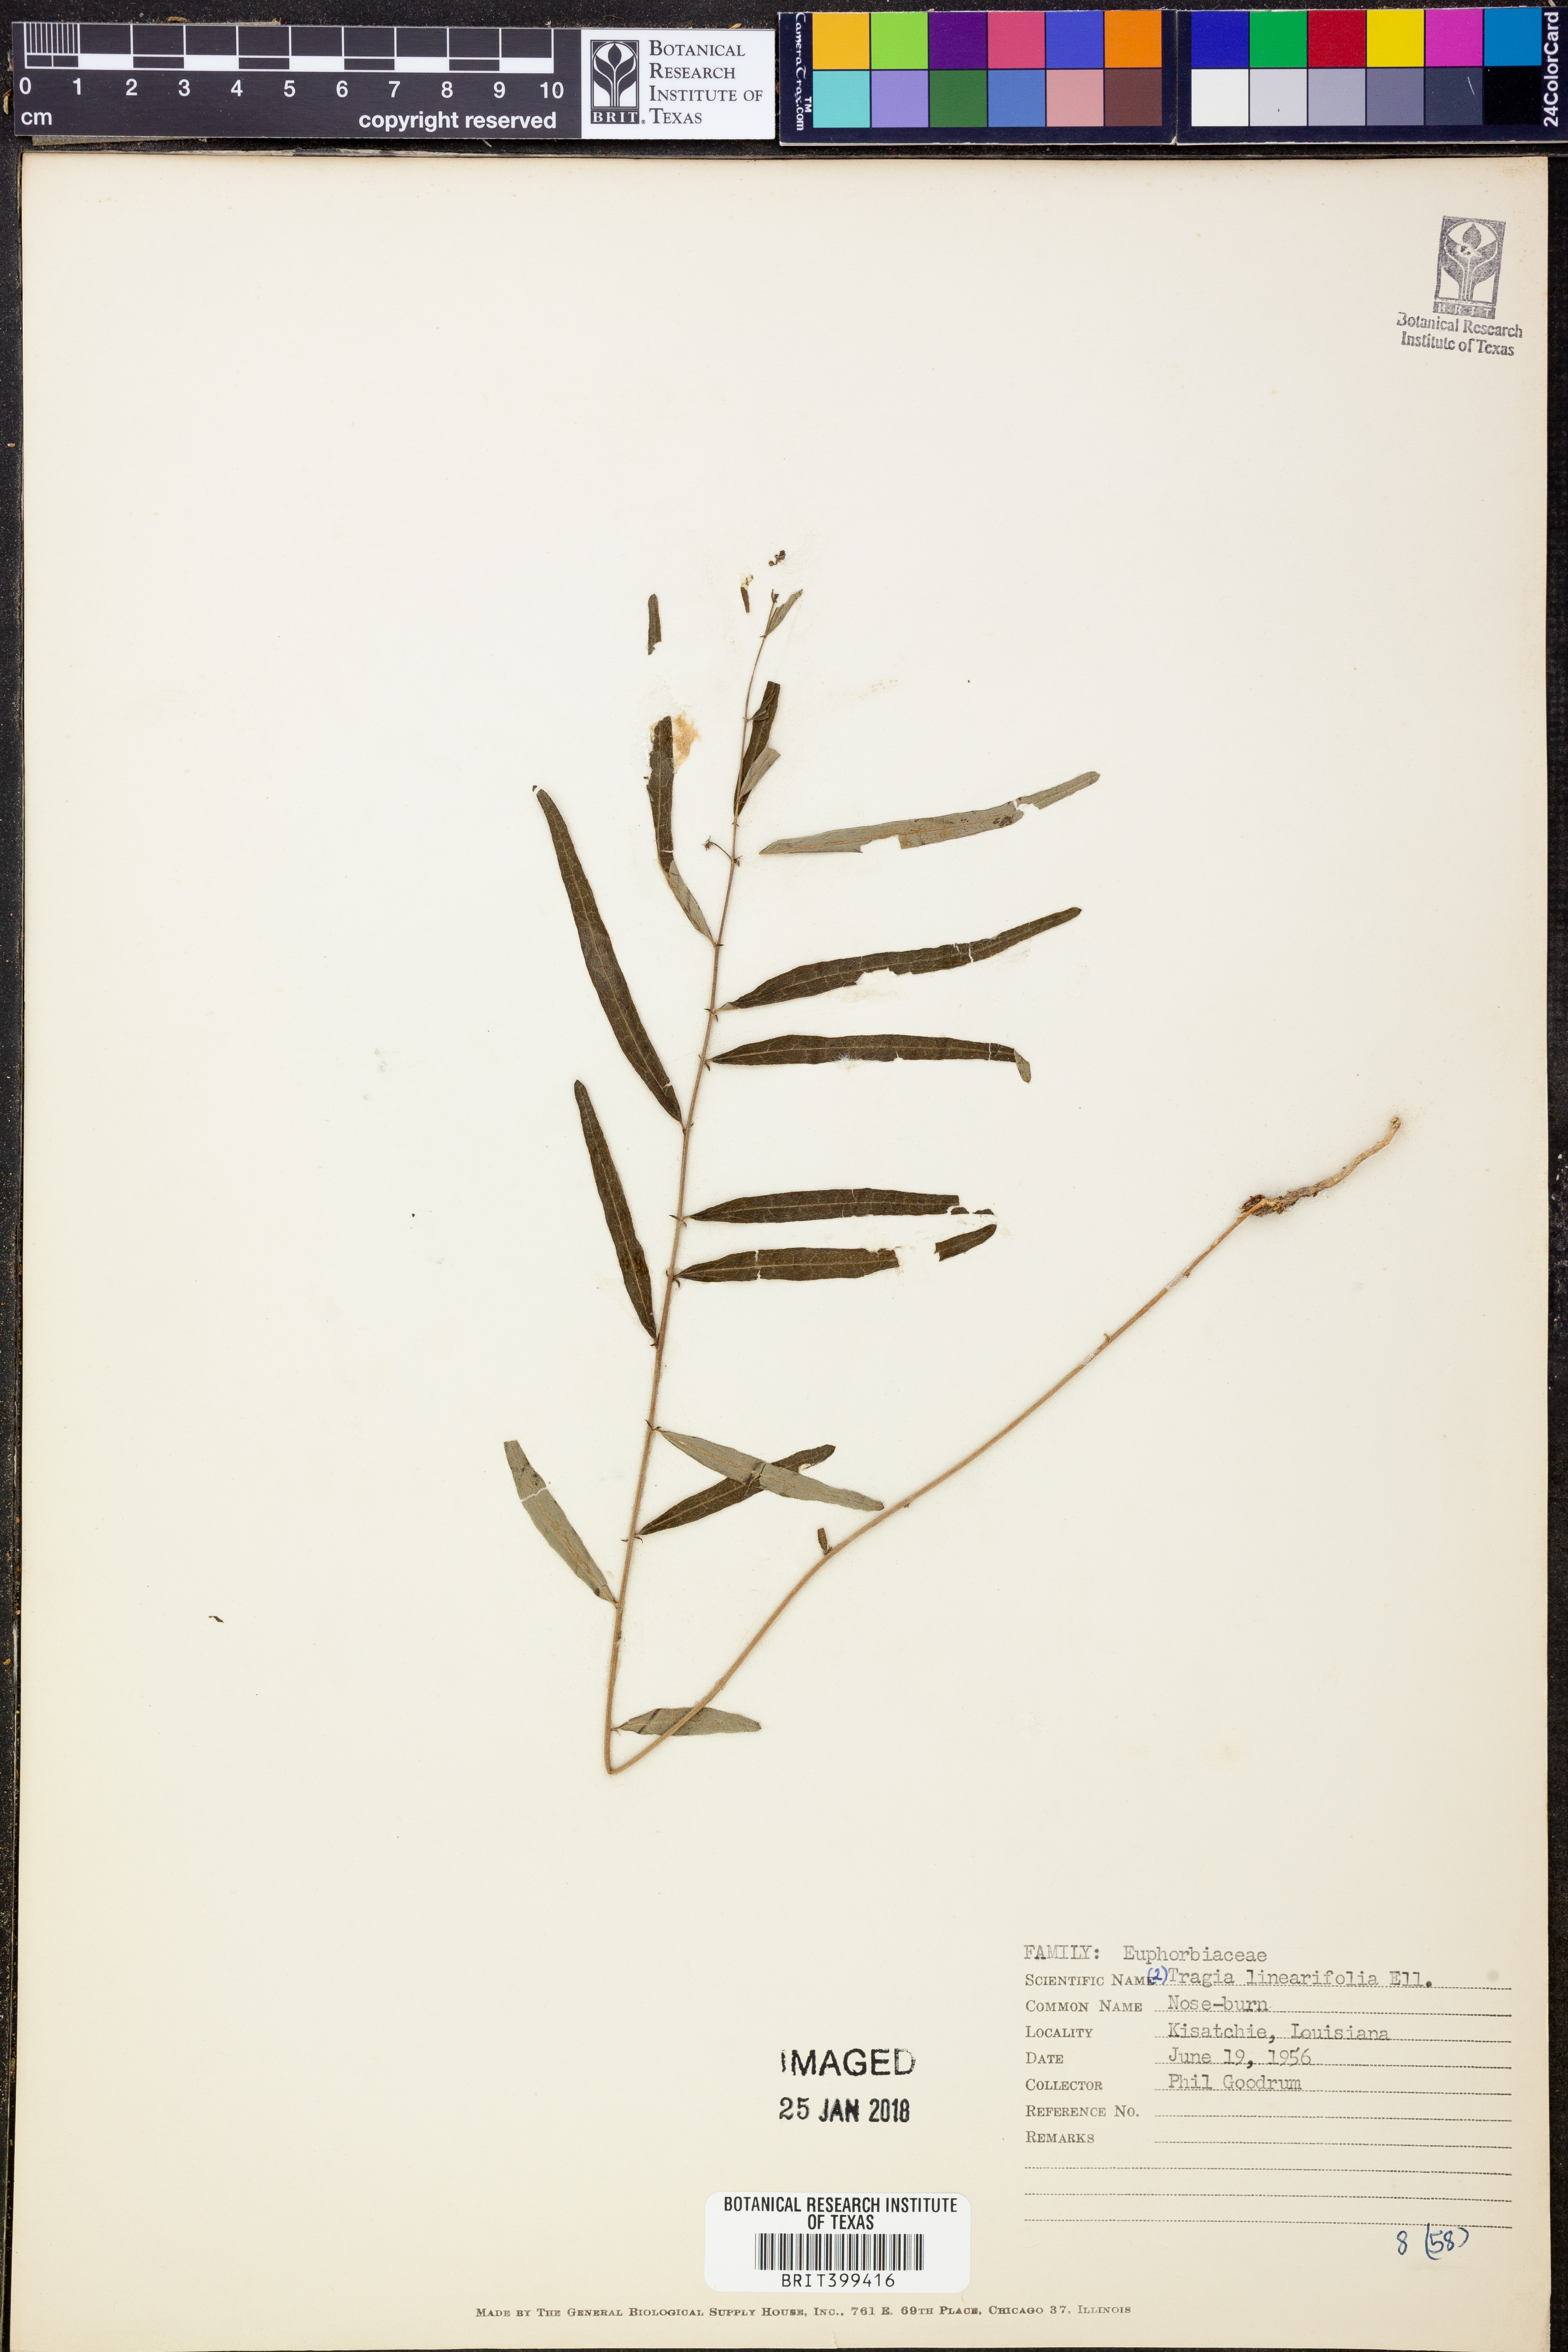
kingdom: Plantae
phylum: Tracheophyta
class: Magnoliopsida
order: Malpighiales
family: Euphorbiaceae
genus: Tragia
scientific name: Tragia urens
